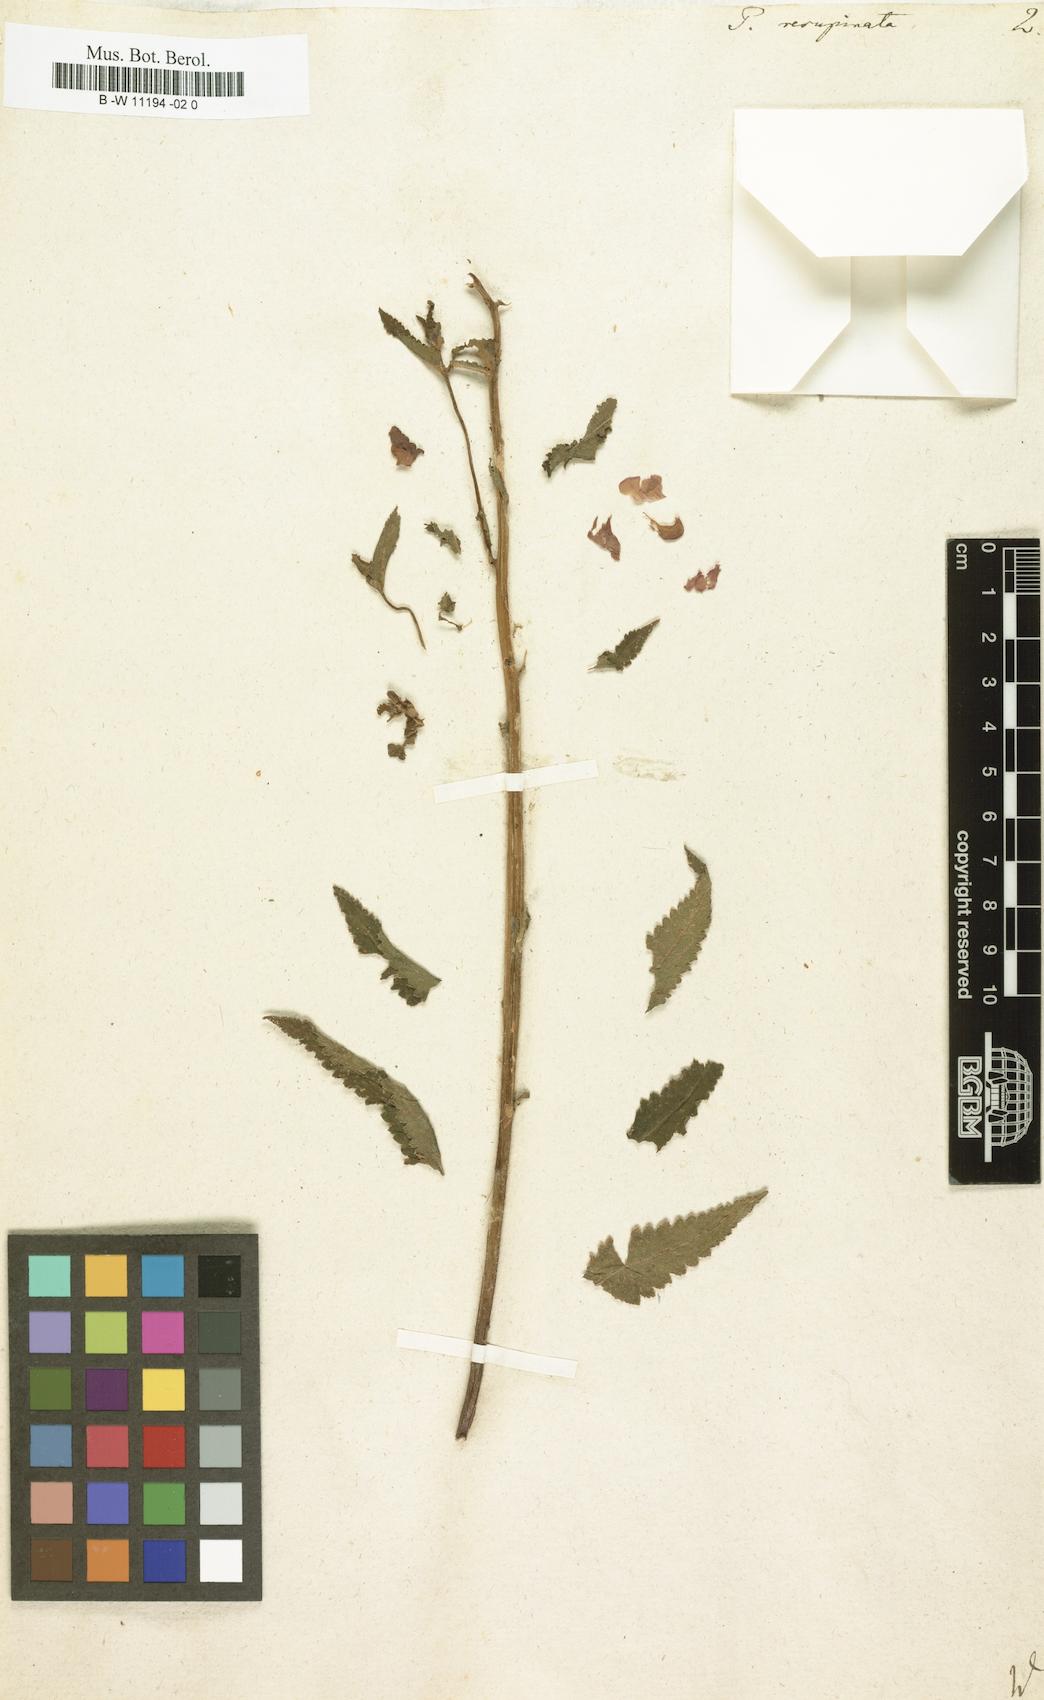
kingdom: Plantae
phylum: Tracheophyta
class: Magnoliopsida
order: Lamiales
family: Orobanchaceae
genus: Pedicularis
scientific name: Pedicularis resupinata
